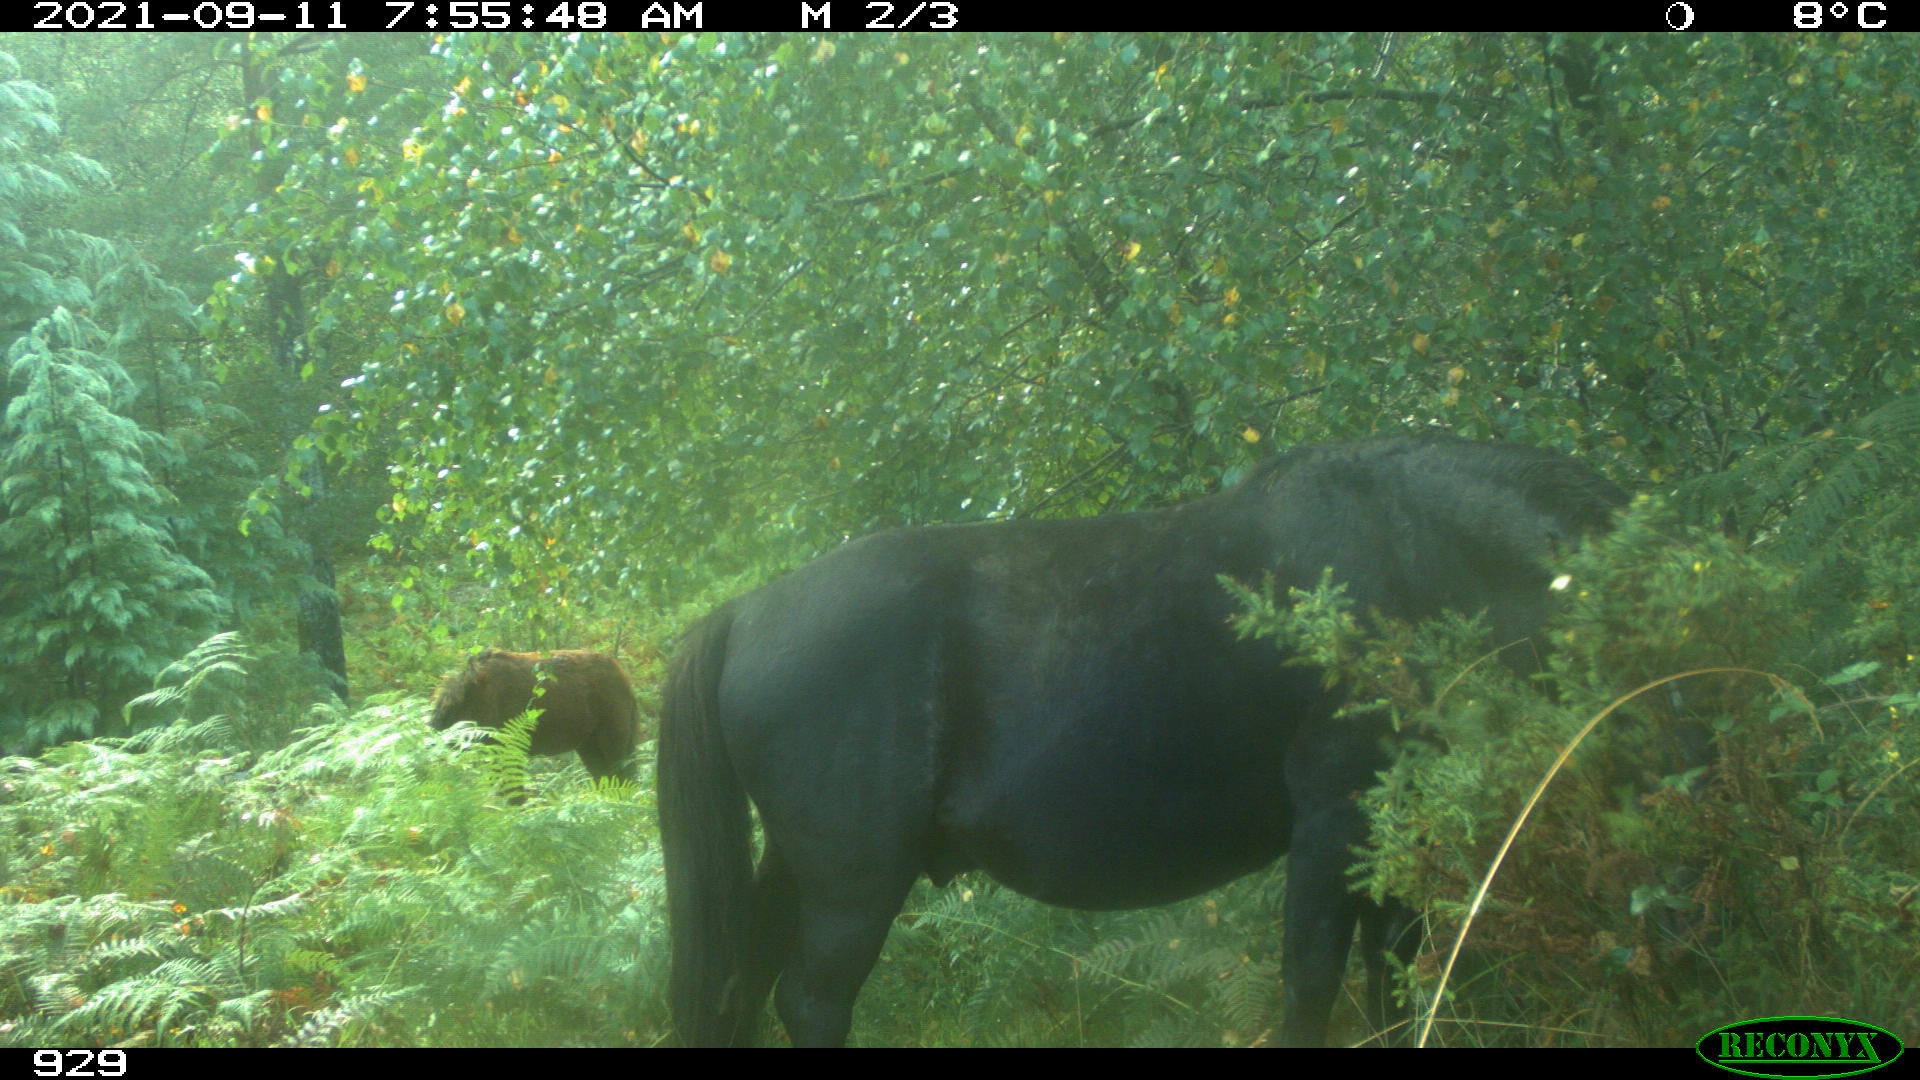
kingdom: Animalia
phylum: Chordata
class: Mammalia
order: Perissodactyla
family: Equidae
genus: Equus
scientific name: Equus caballus
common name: Horse
